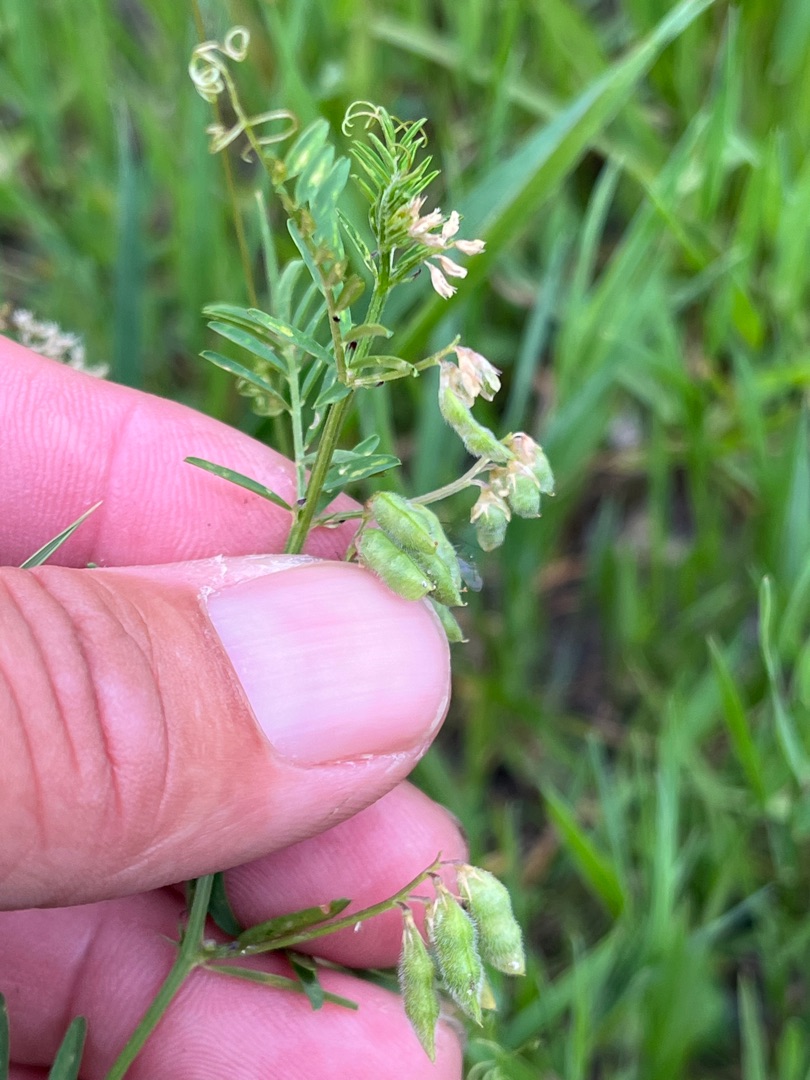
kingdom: Plantae
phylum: Tracheophyta
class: Magnoliopsida
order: Fabales
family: Fabaceae
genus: Vicia
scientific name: Vicia hirsuta
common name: Tofrøet vikke
